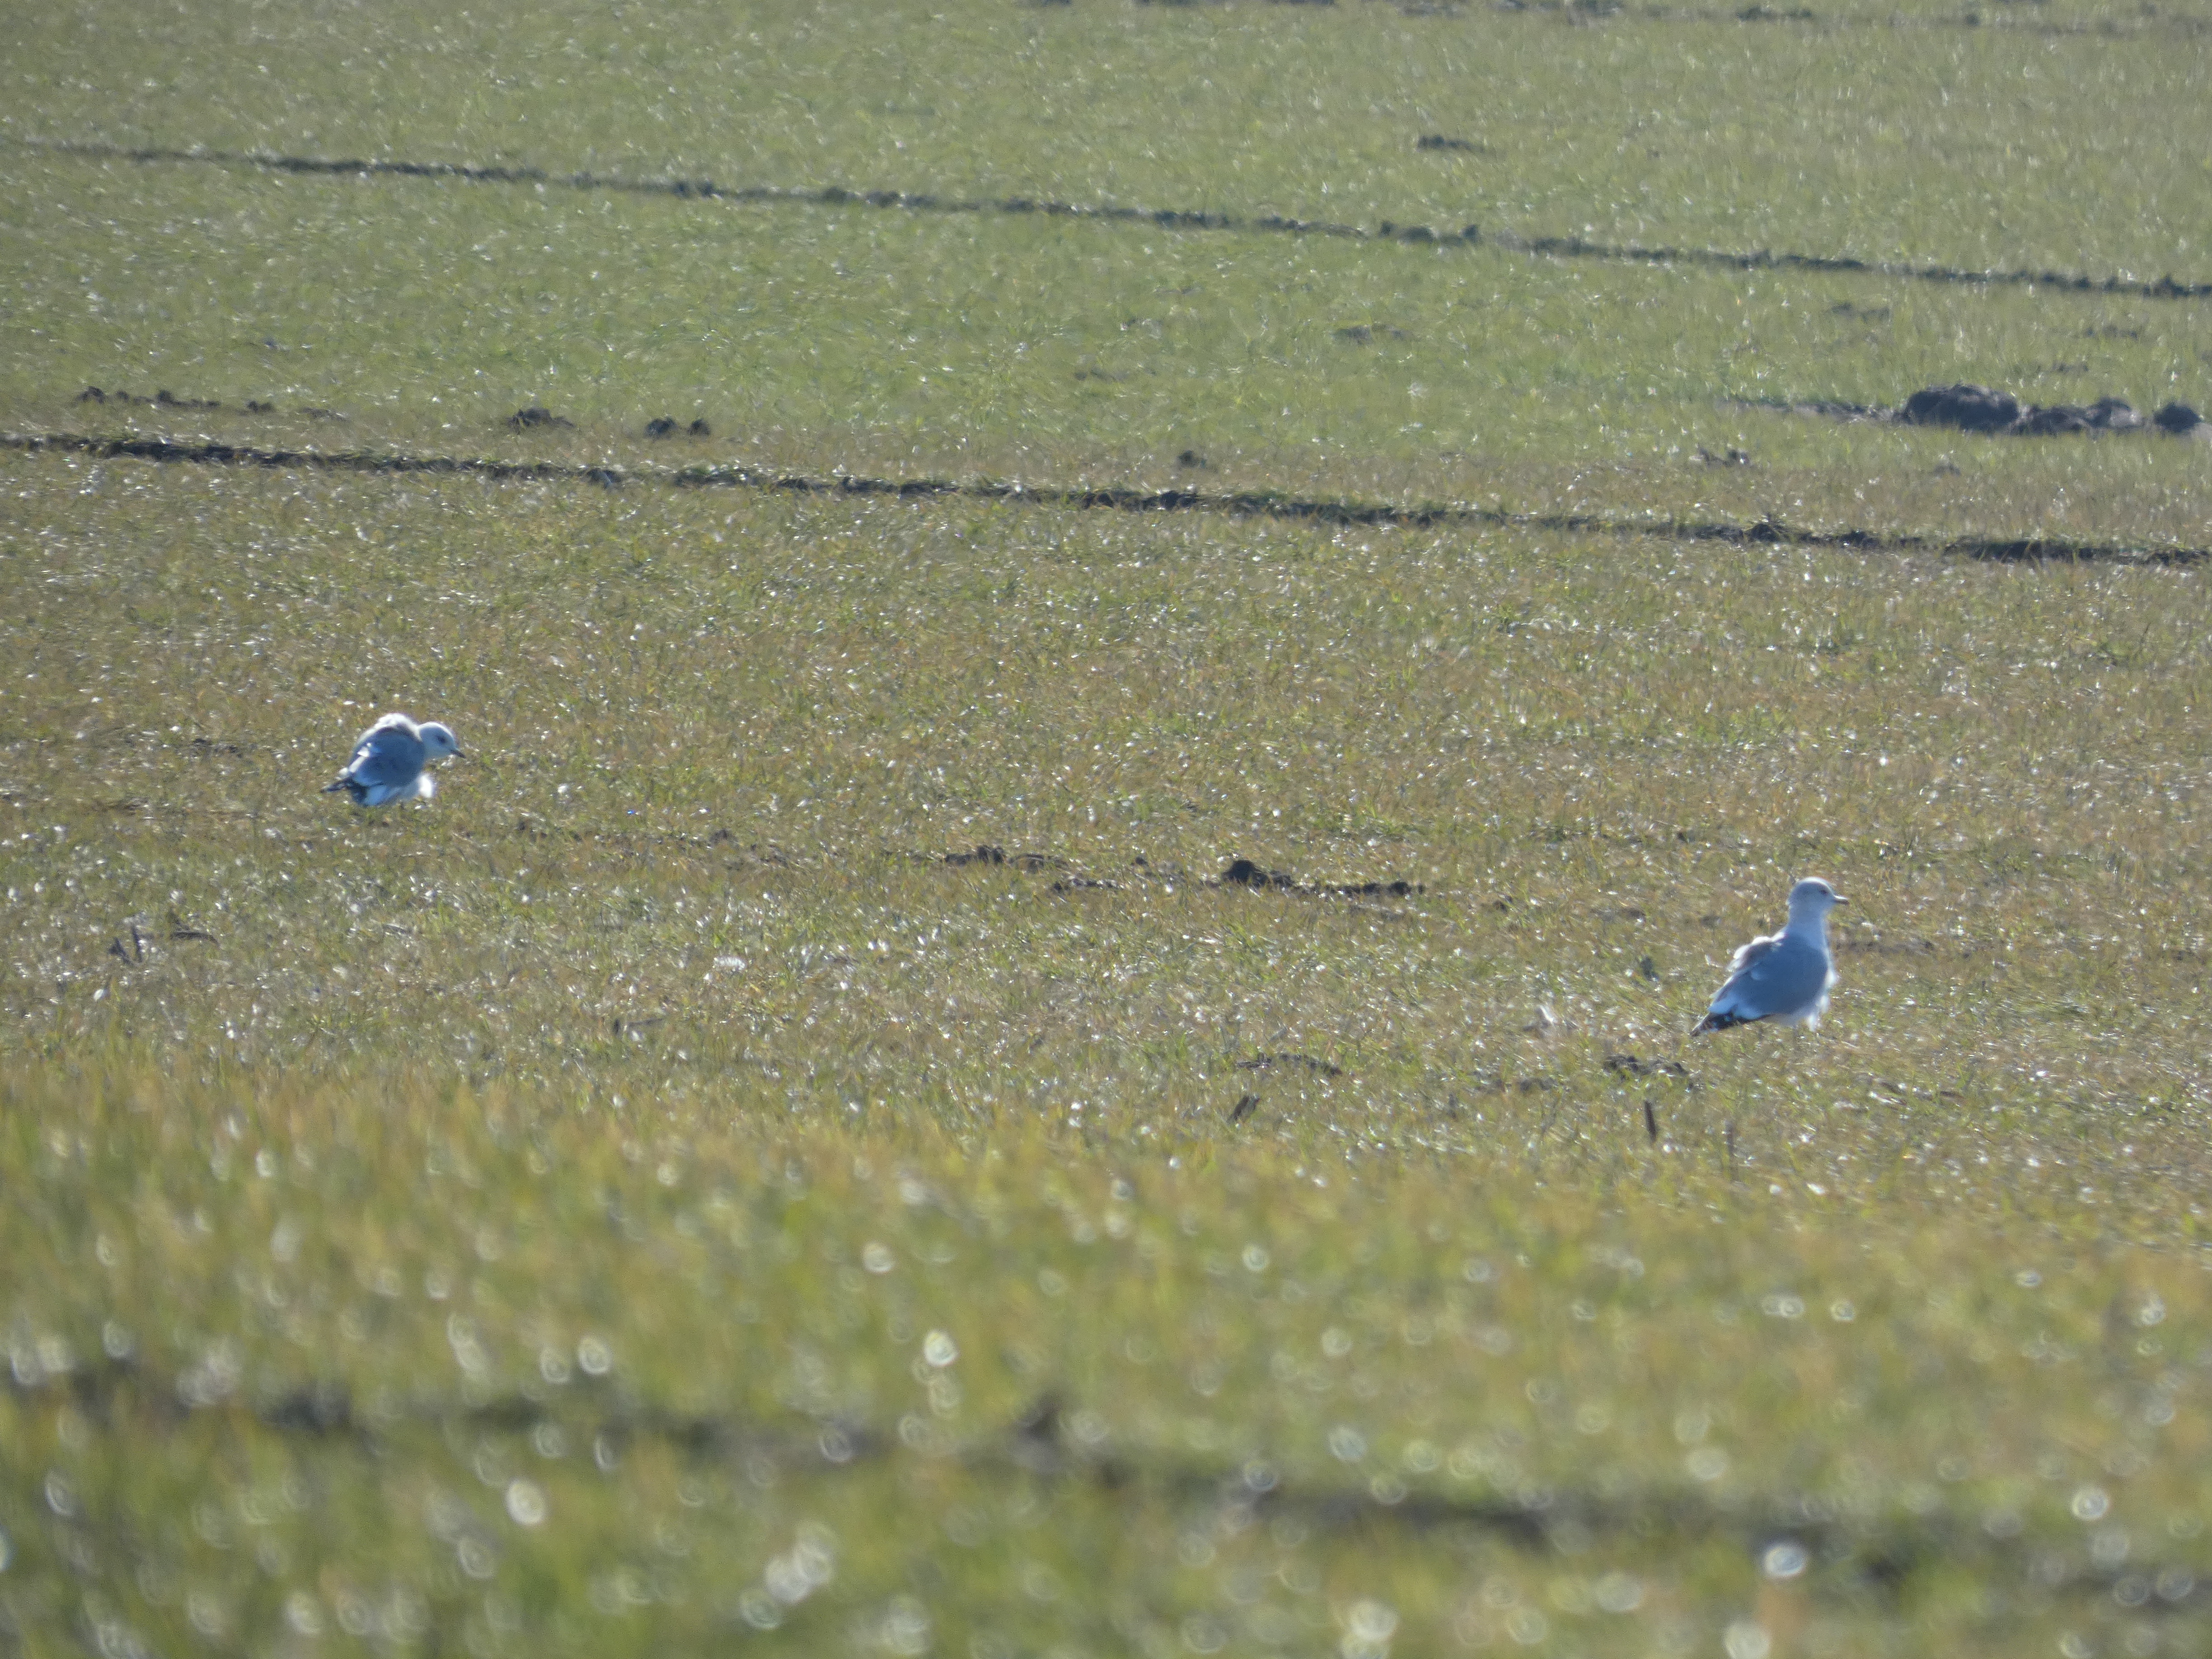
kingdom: Animalia
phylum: Chordata
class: Aves
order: Charadriiformes
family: Laridae
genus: Larus
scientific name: Larus canus
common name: Stormmåge
